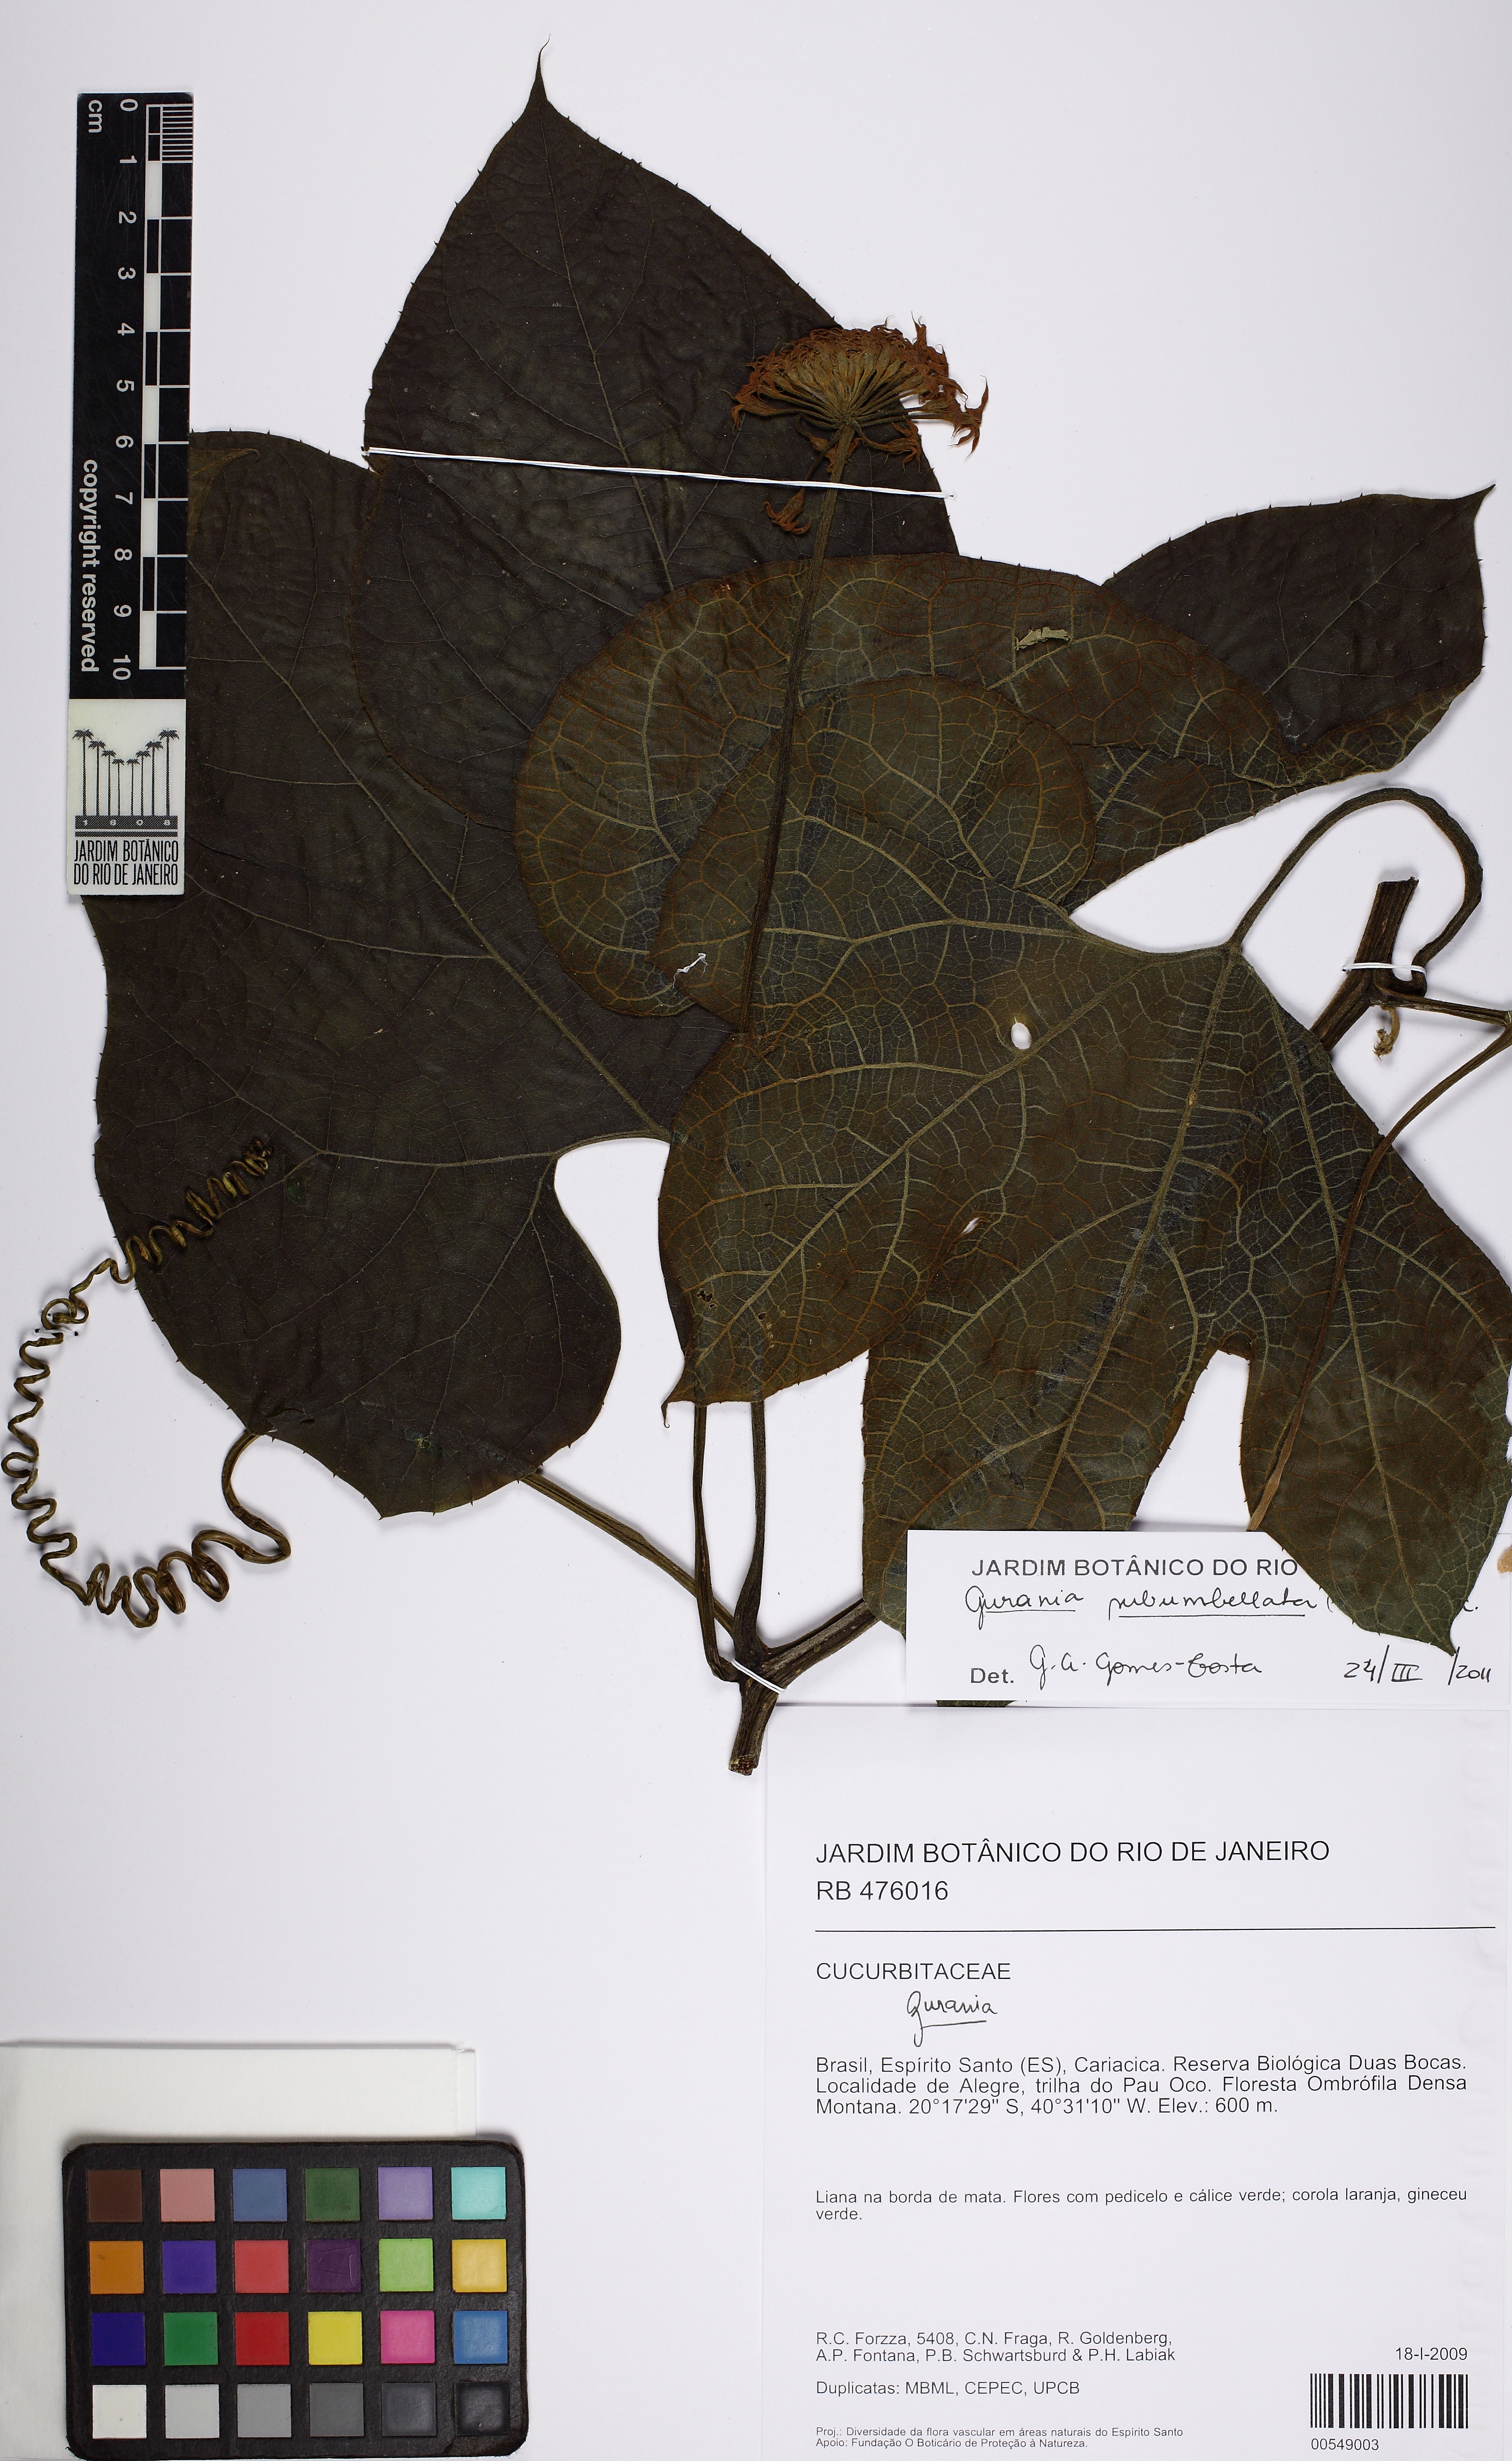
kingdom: Plantae
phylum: Tracheophyta
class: Magnoliopsida
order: Cucurbitales
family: Cucurbitaceae
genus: Gurania
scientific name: Gurania subumbellata
